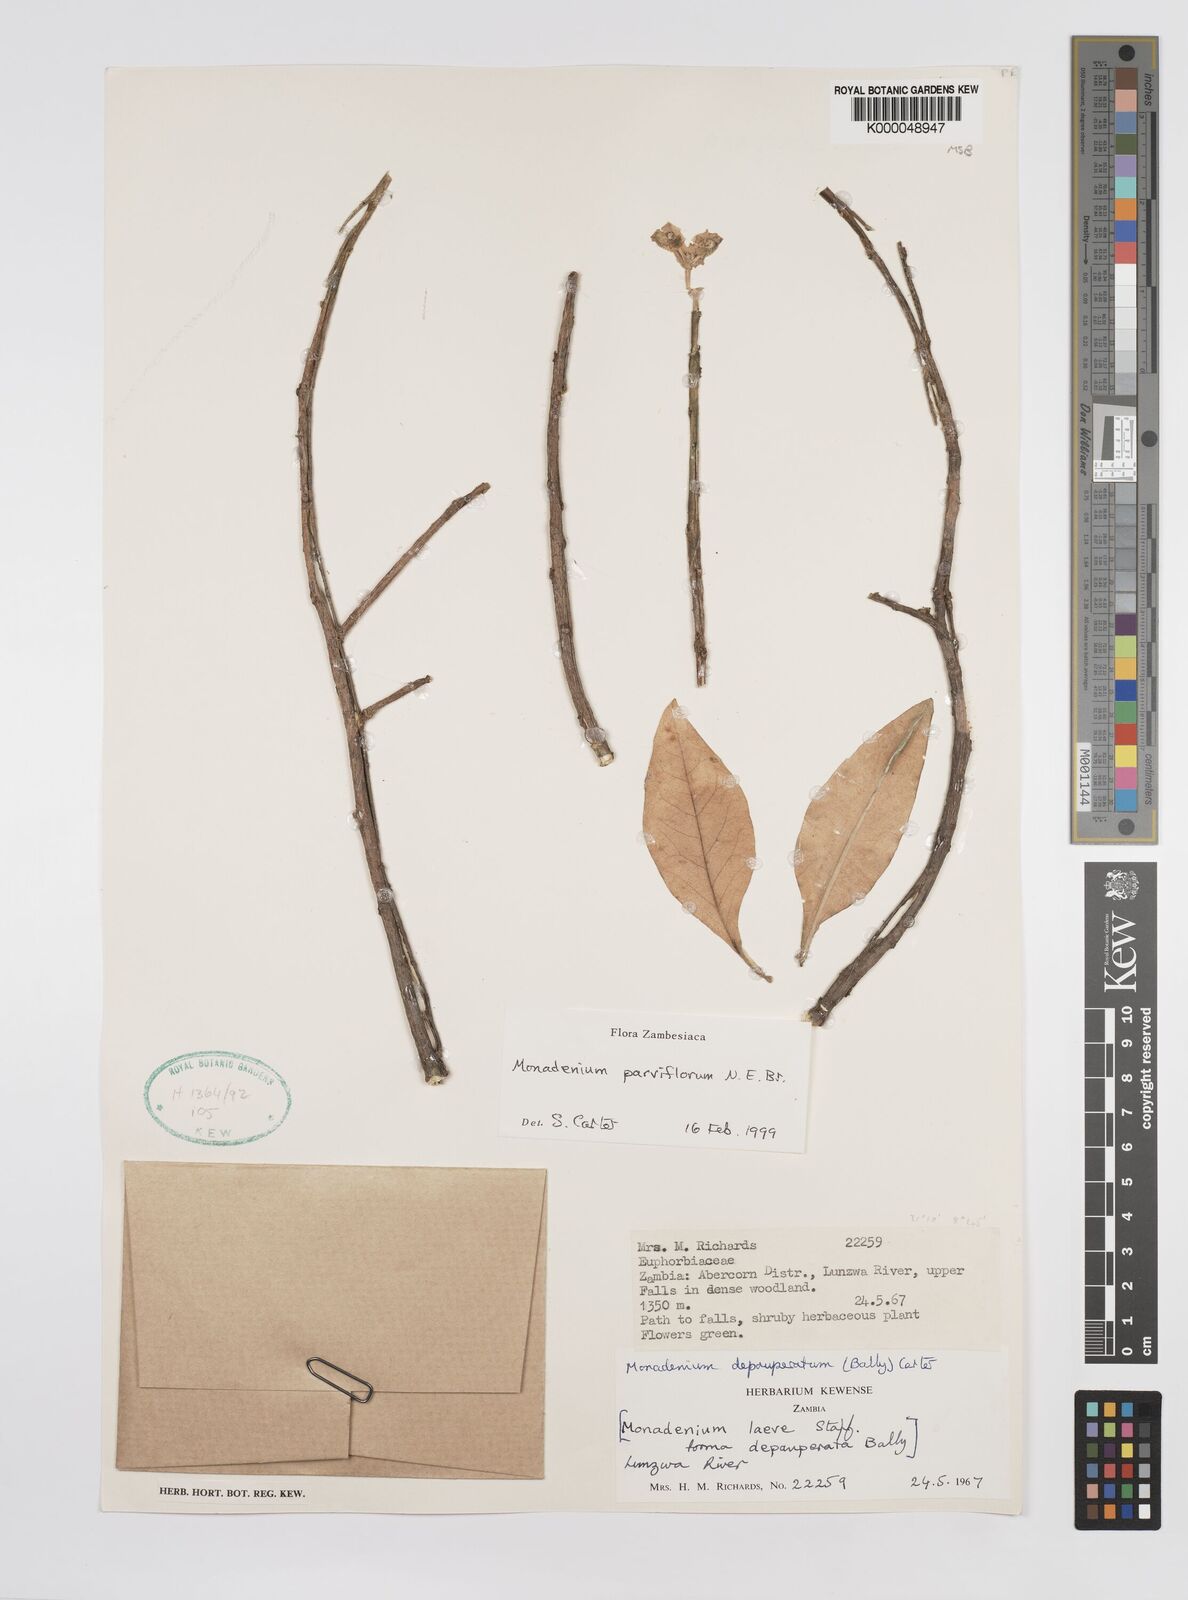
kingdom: Plantae
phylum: Tracheophyta
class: Magnoliopsida
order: Malpighiales
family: Euphorbiaceae
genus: Euphorbia
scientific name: Euphorbia neoparviflora
